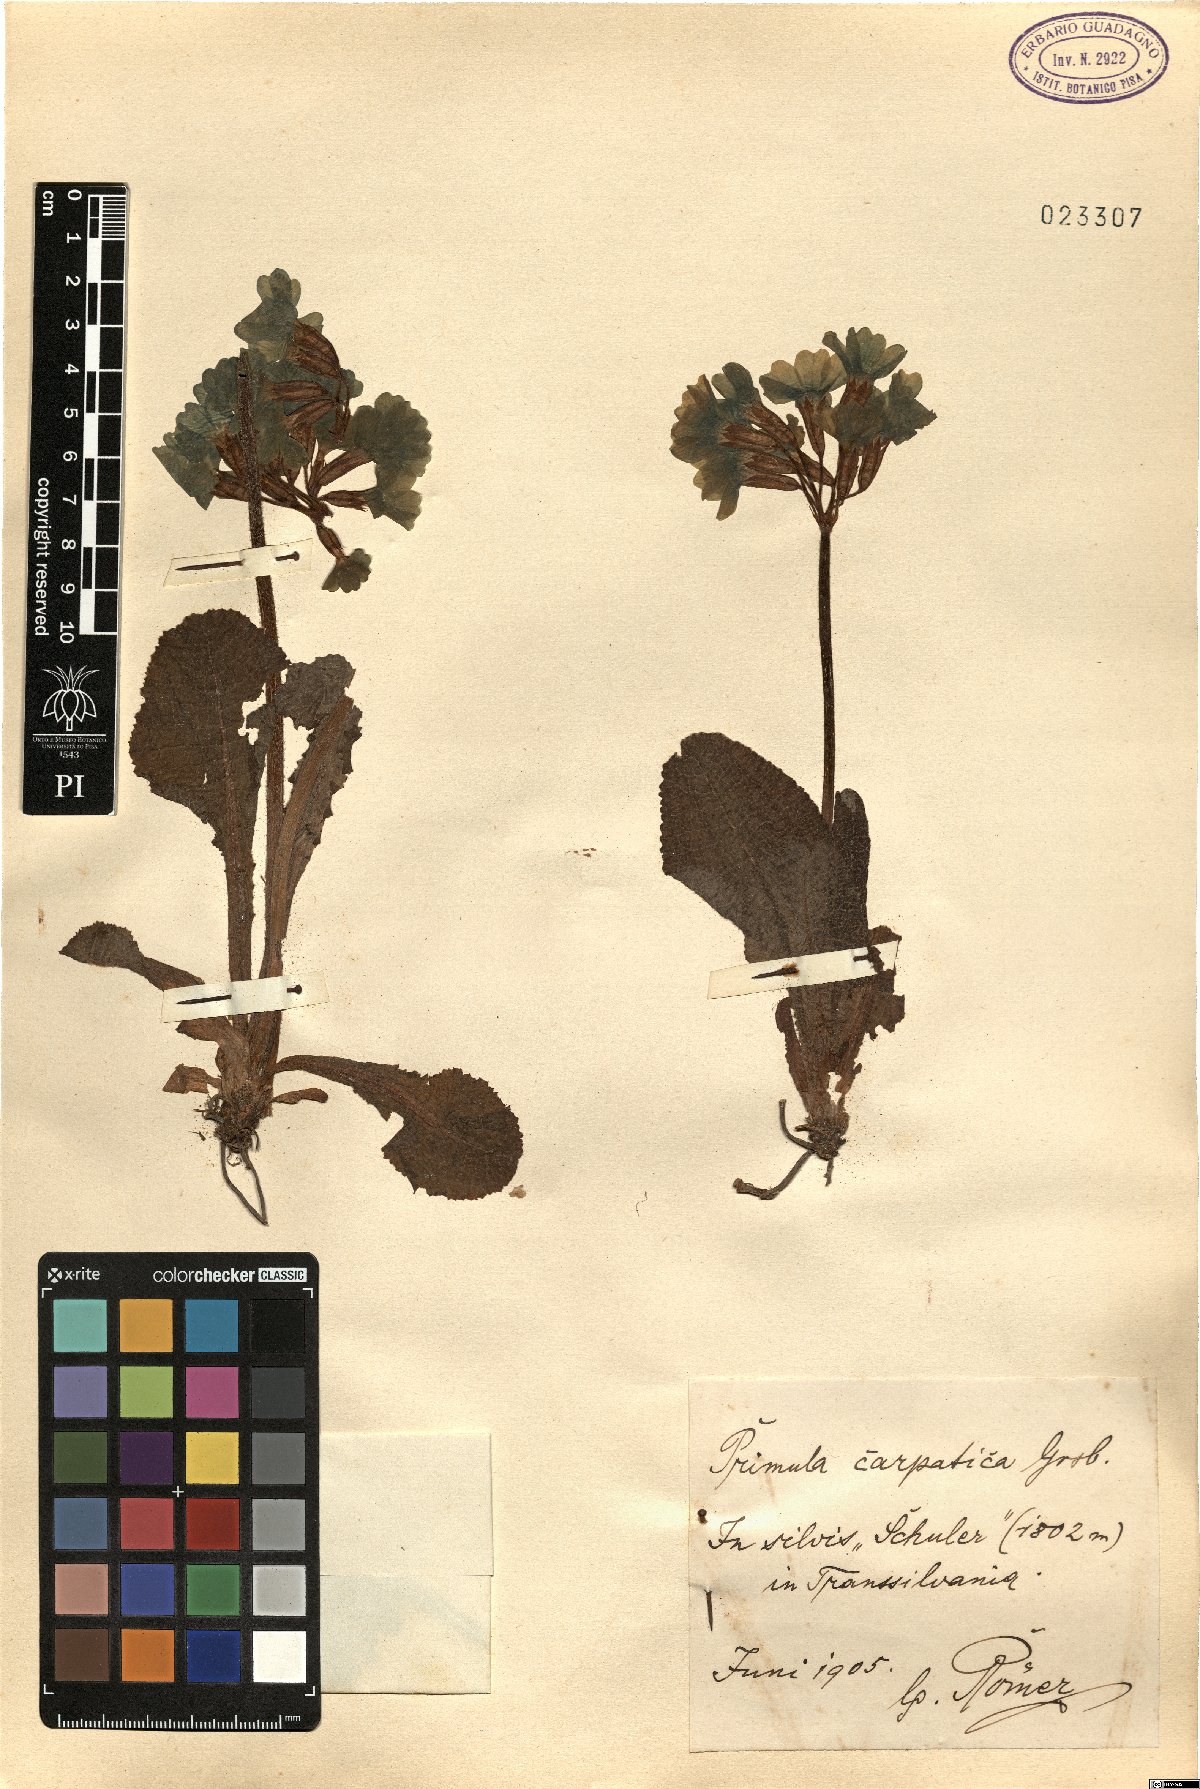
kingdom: Plantae
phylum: Tracheophyta
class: Magnoliopsida
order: Ericales
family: Primulaceae
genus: Primula
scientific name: Primula elatior
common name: Oxlip
